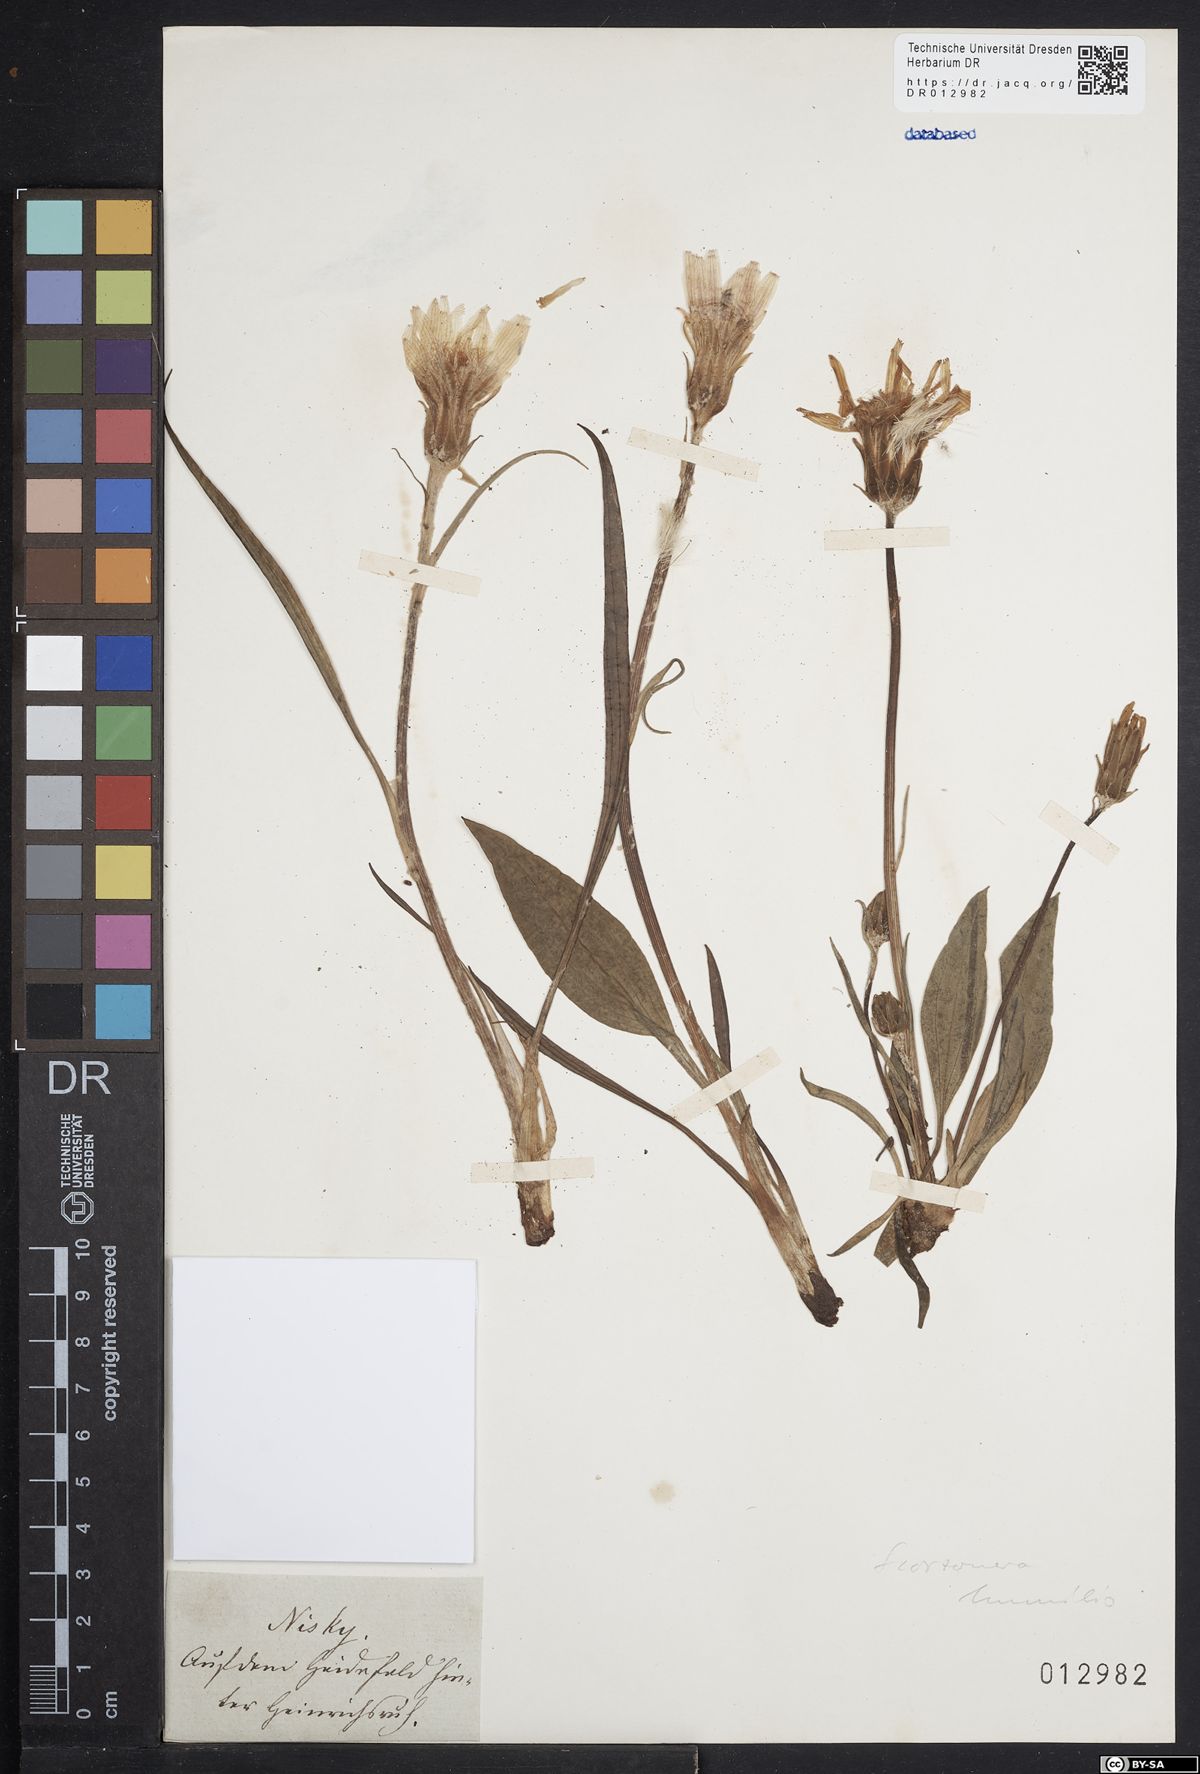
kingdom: Plantae
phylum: Tracheophyta
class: Magnoliopsida
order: Asterales
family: Asteraceae
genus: Scorzonera
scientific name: Scorzonera humilis
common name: Viper's-grass
